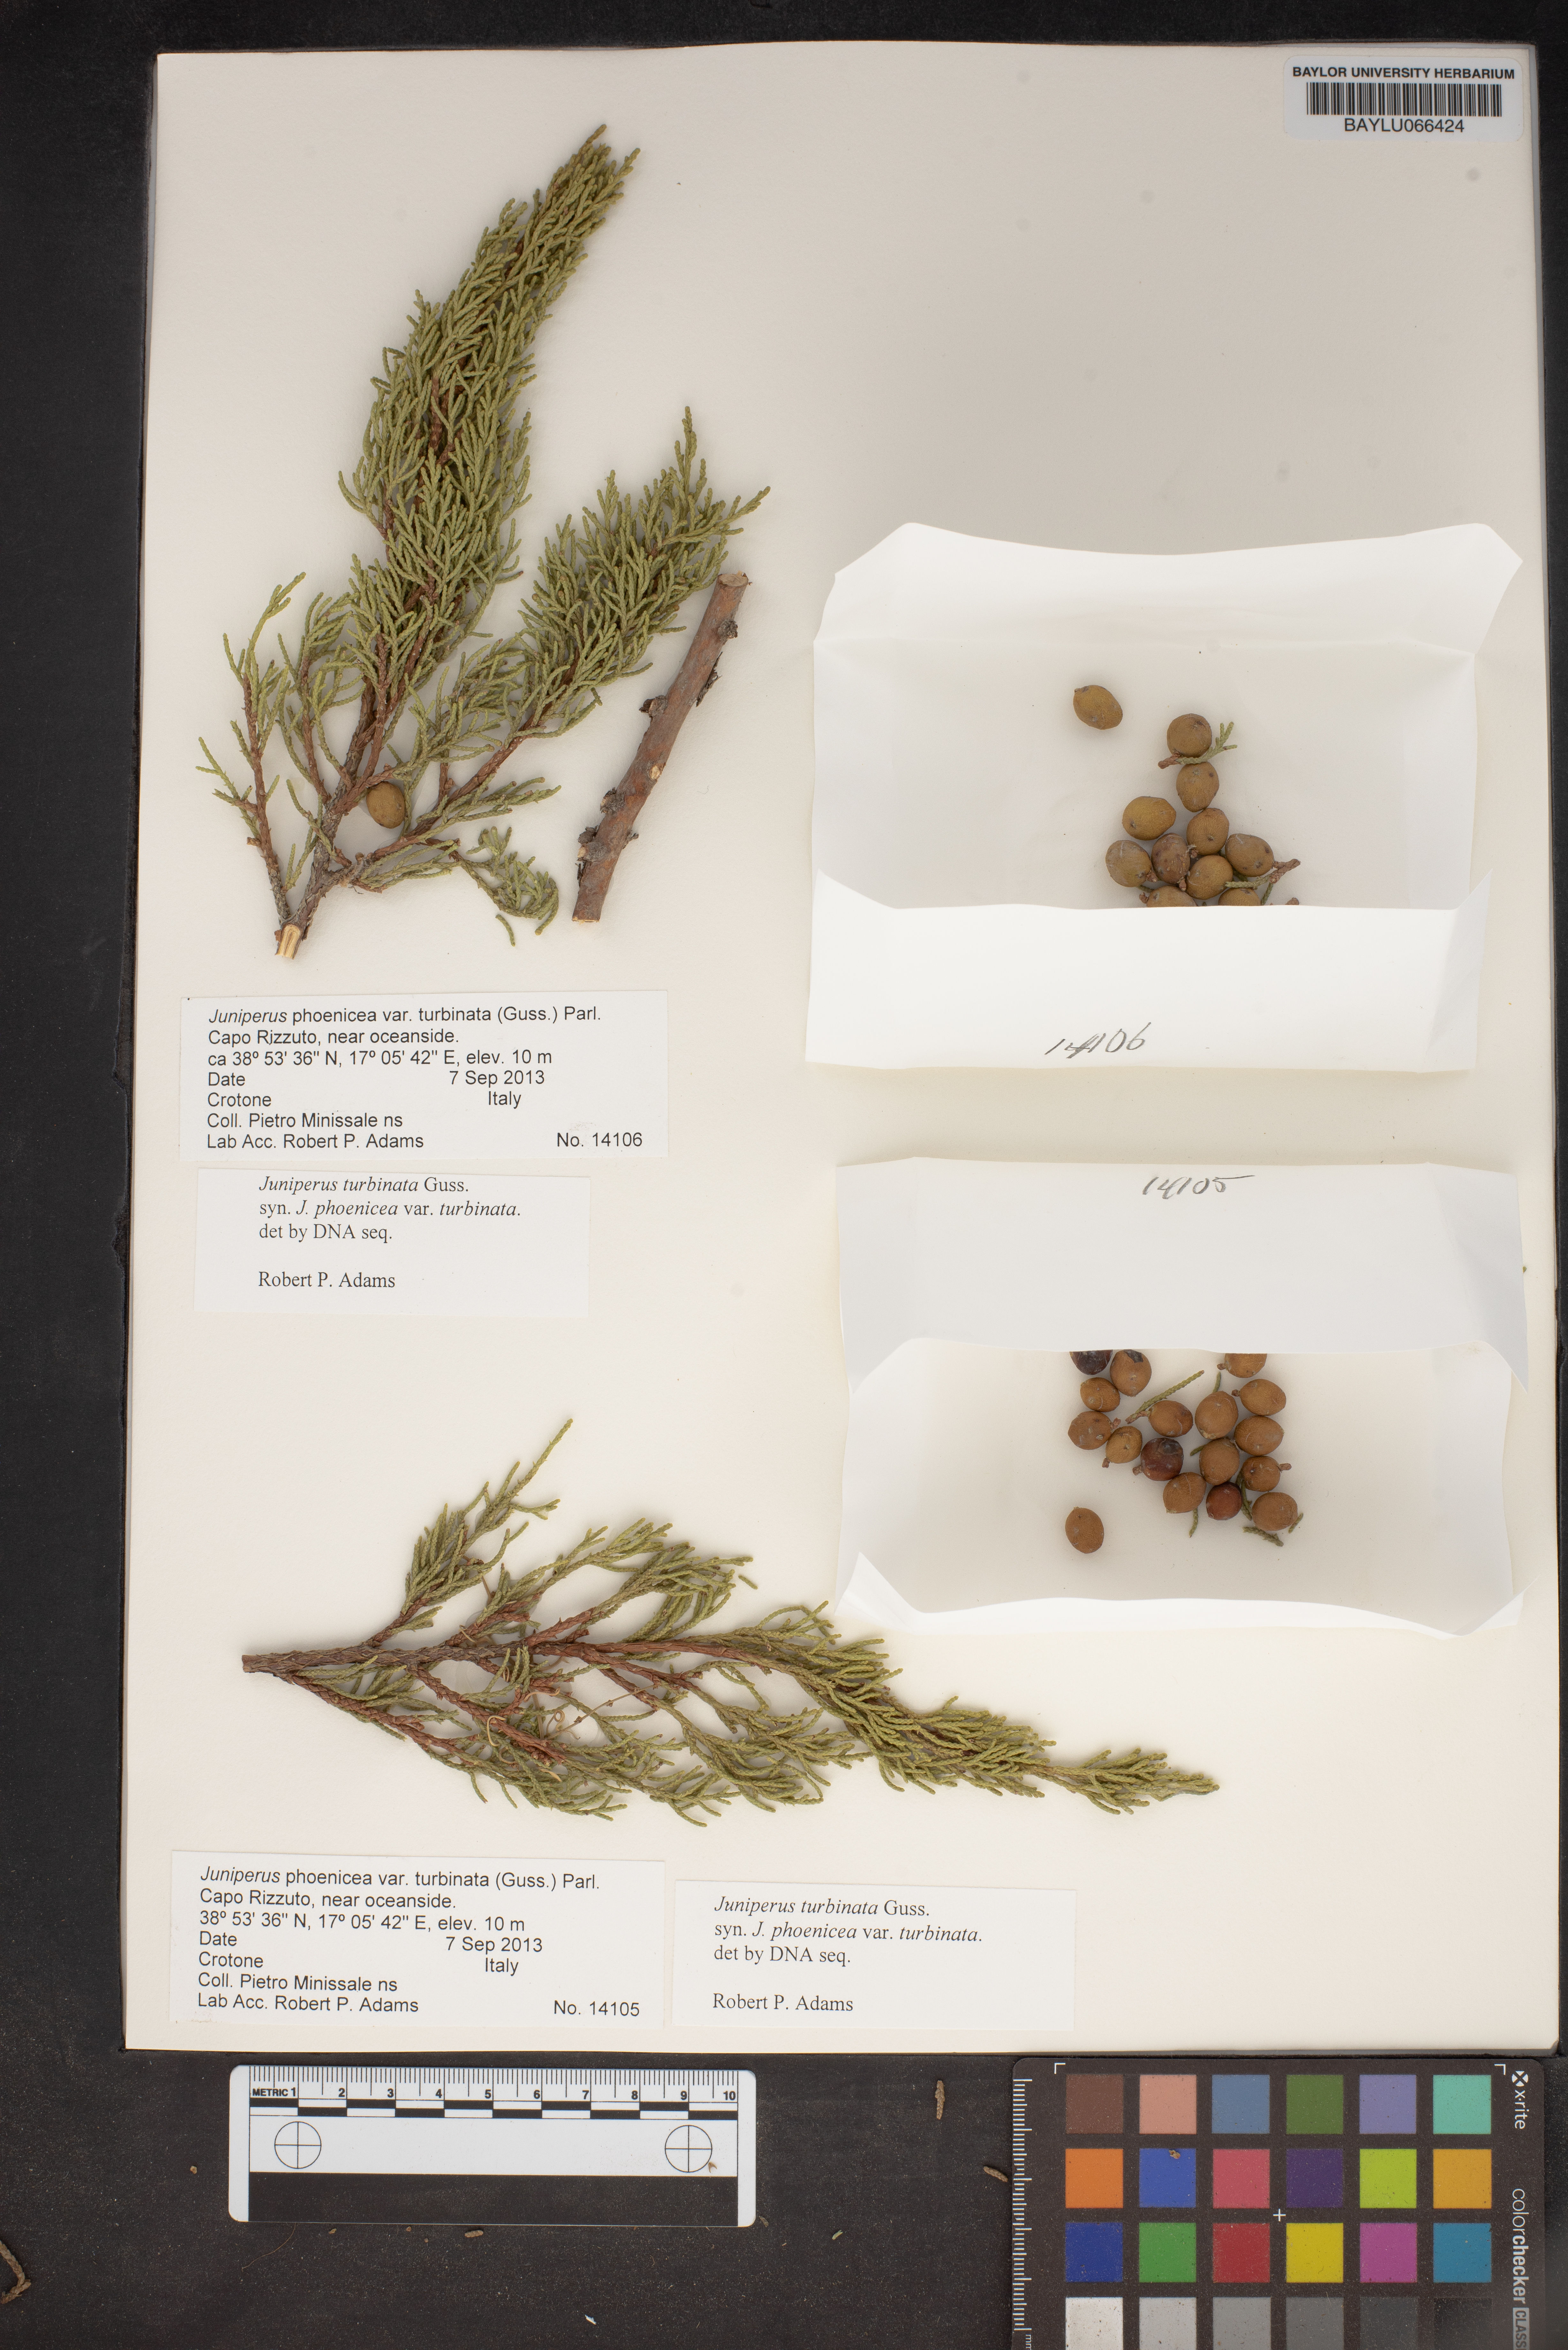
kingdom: Plantae
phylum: Tracheophyta
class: Pinopsida
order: Pinales
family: Cupressaceae
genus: Juniperus
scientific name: Juniperus phoenicea
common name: Phoenician juniper
